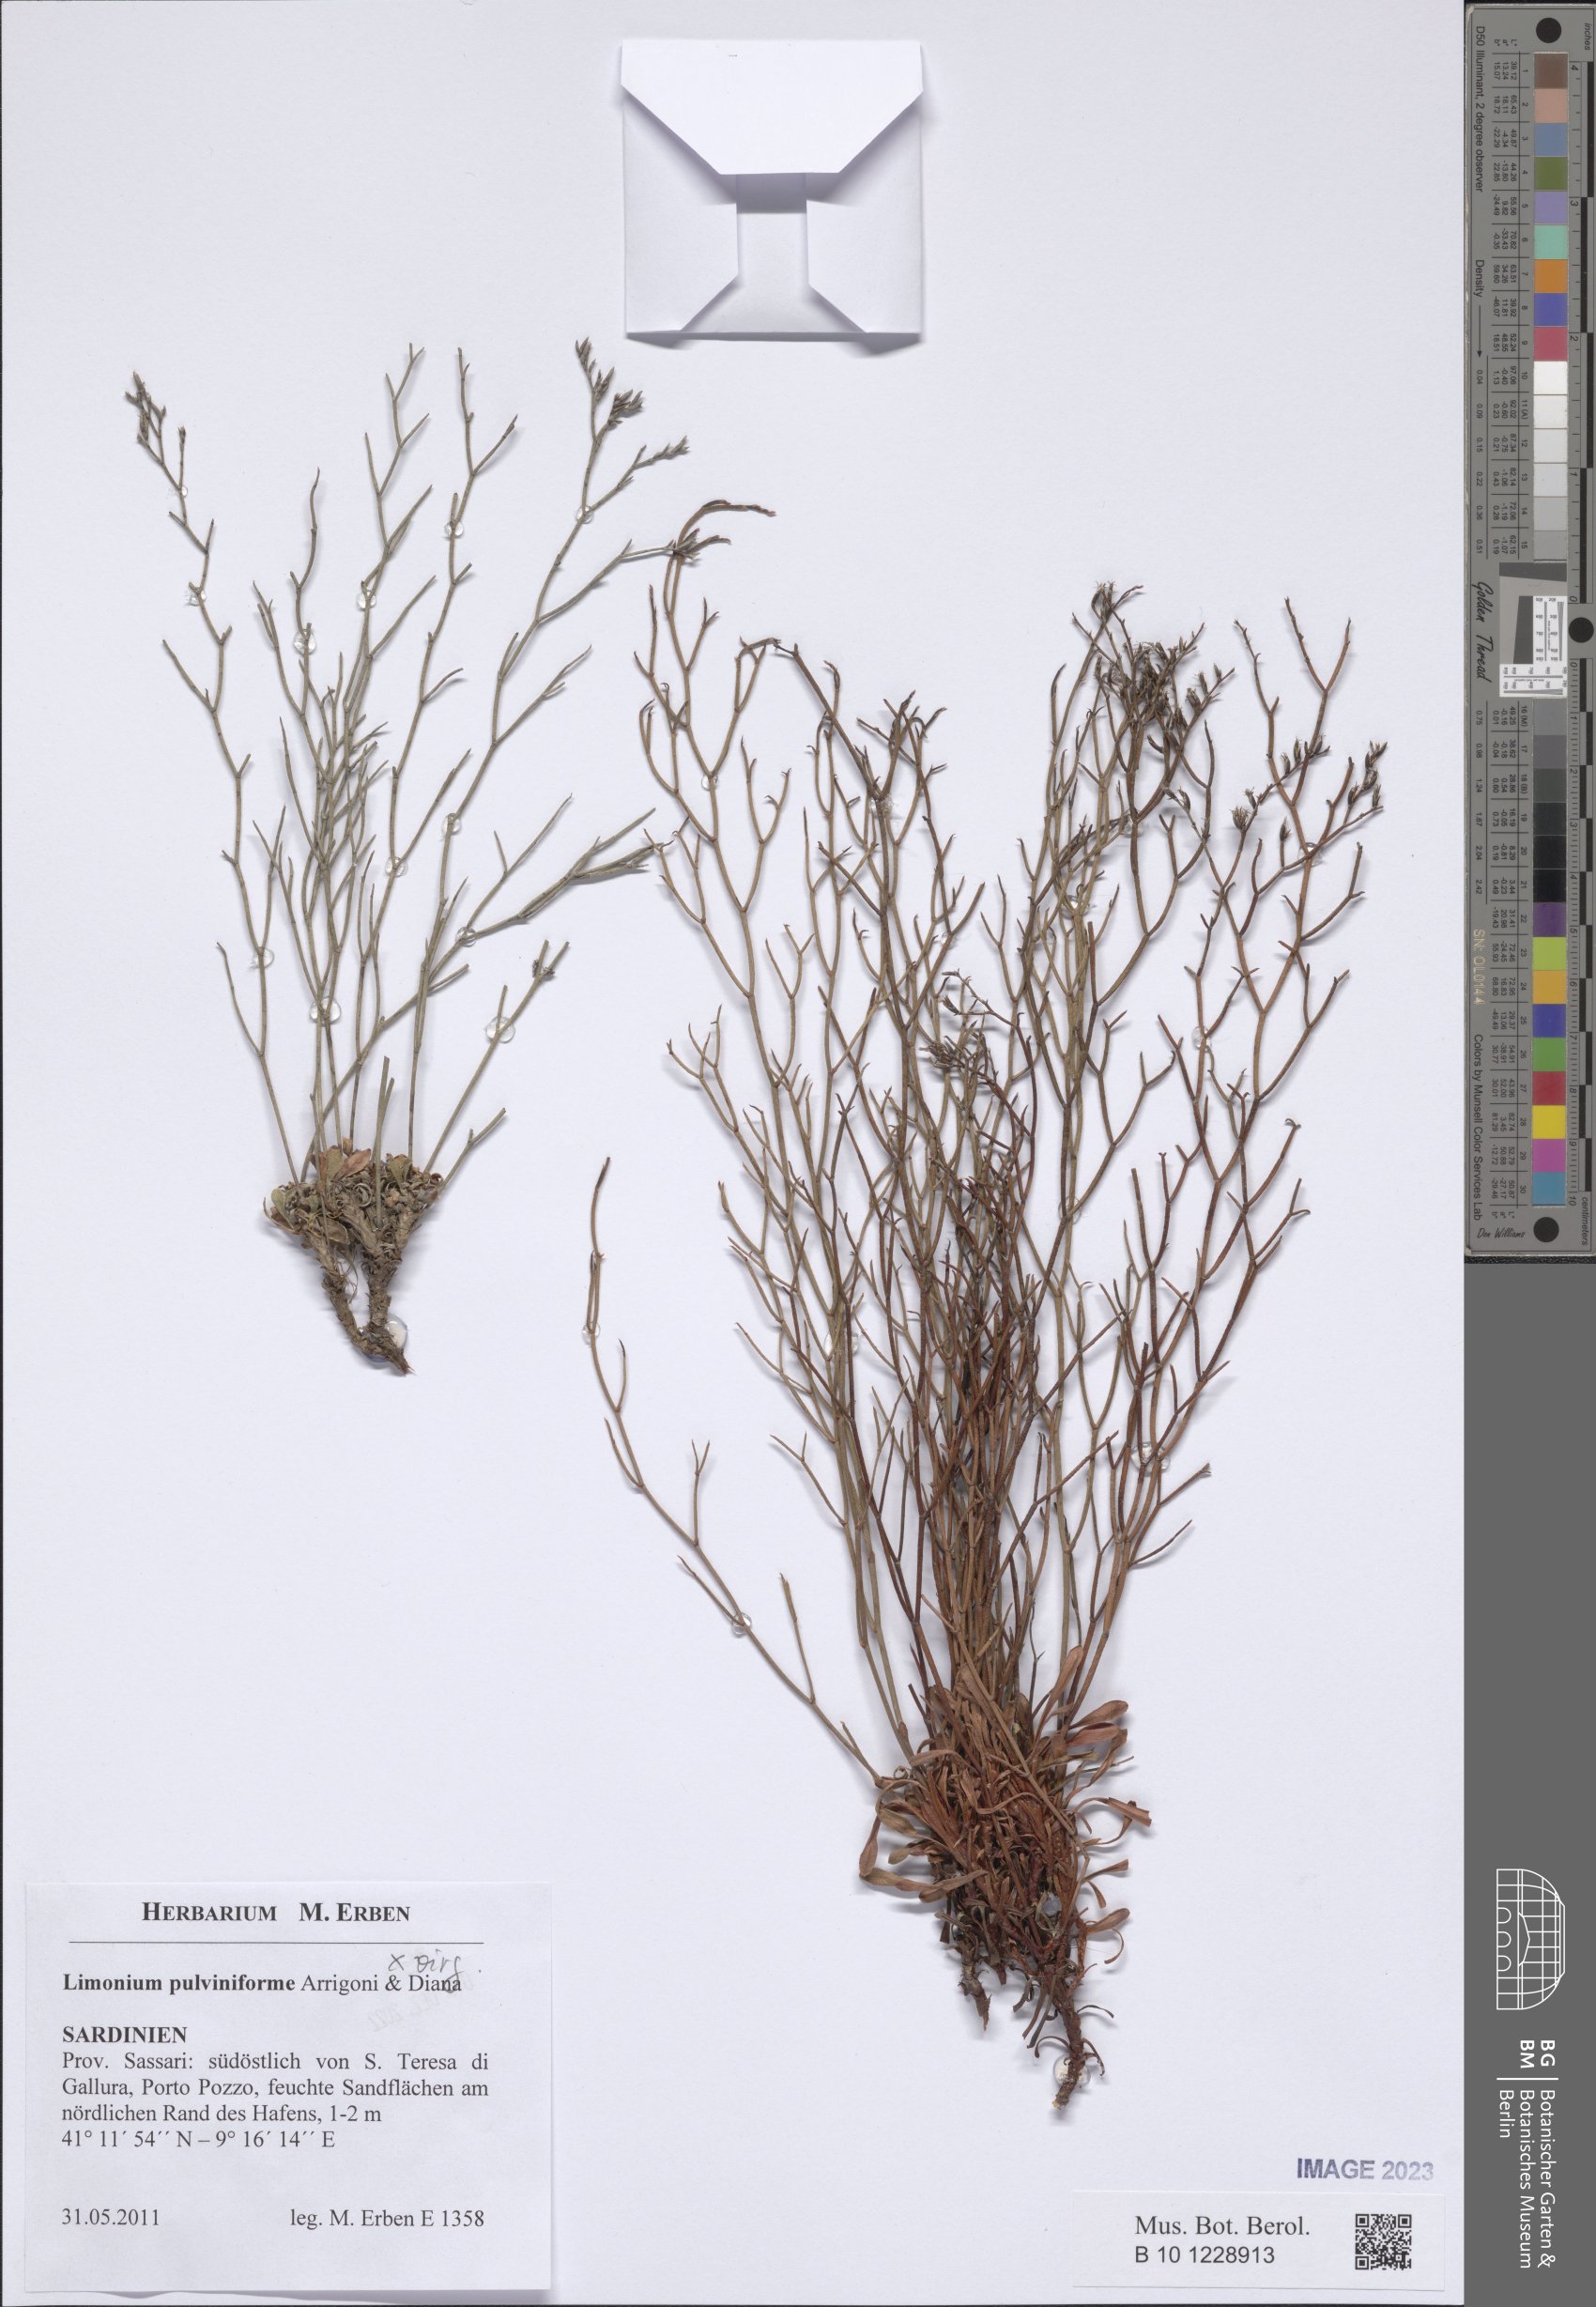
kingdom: Plantae
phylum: Tracheophyta
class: Magnoliopsida
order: Caryophyllales
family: Plumbaginaceae
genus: Limonium
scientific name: Limonium pulviniforme
